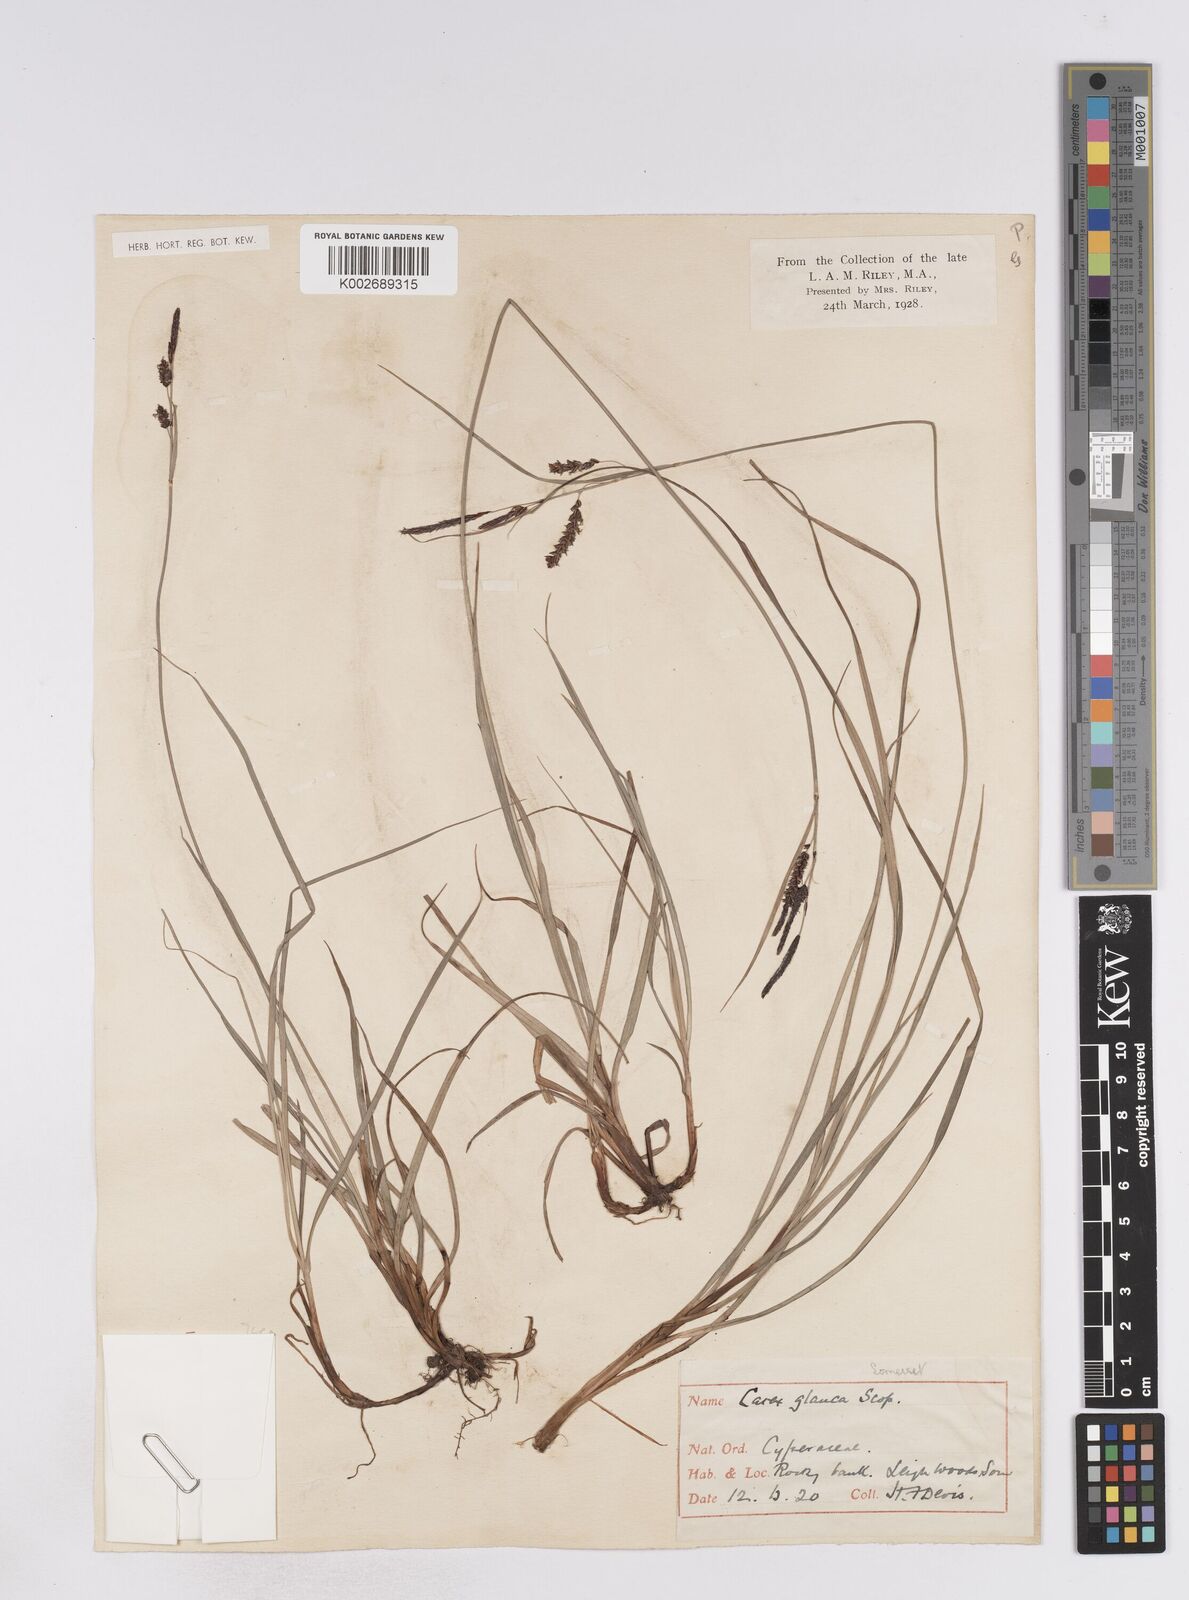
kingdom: Plantae
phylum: Tracheophyta
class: Liliopsida
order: Poales
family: Cyperaceae
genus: Carex
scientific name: Carex flacca
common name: Glaucous sedge
